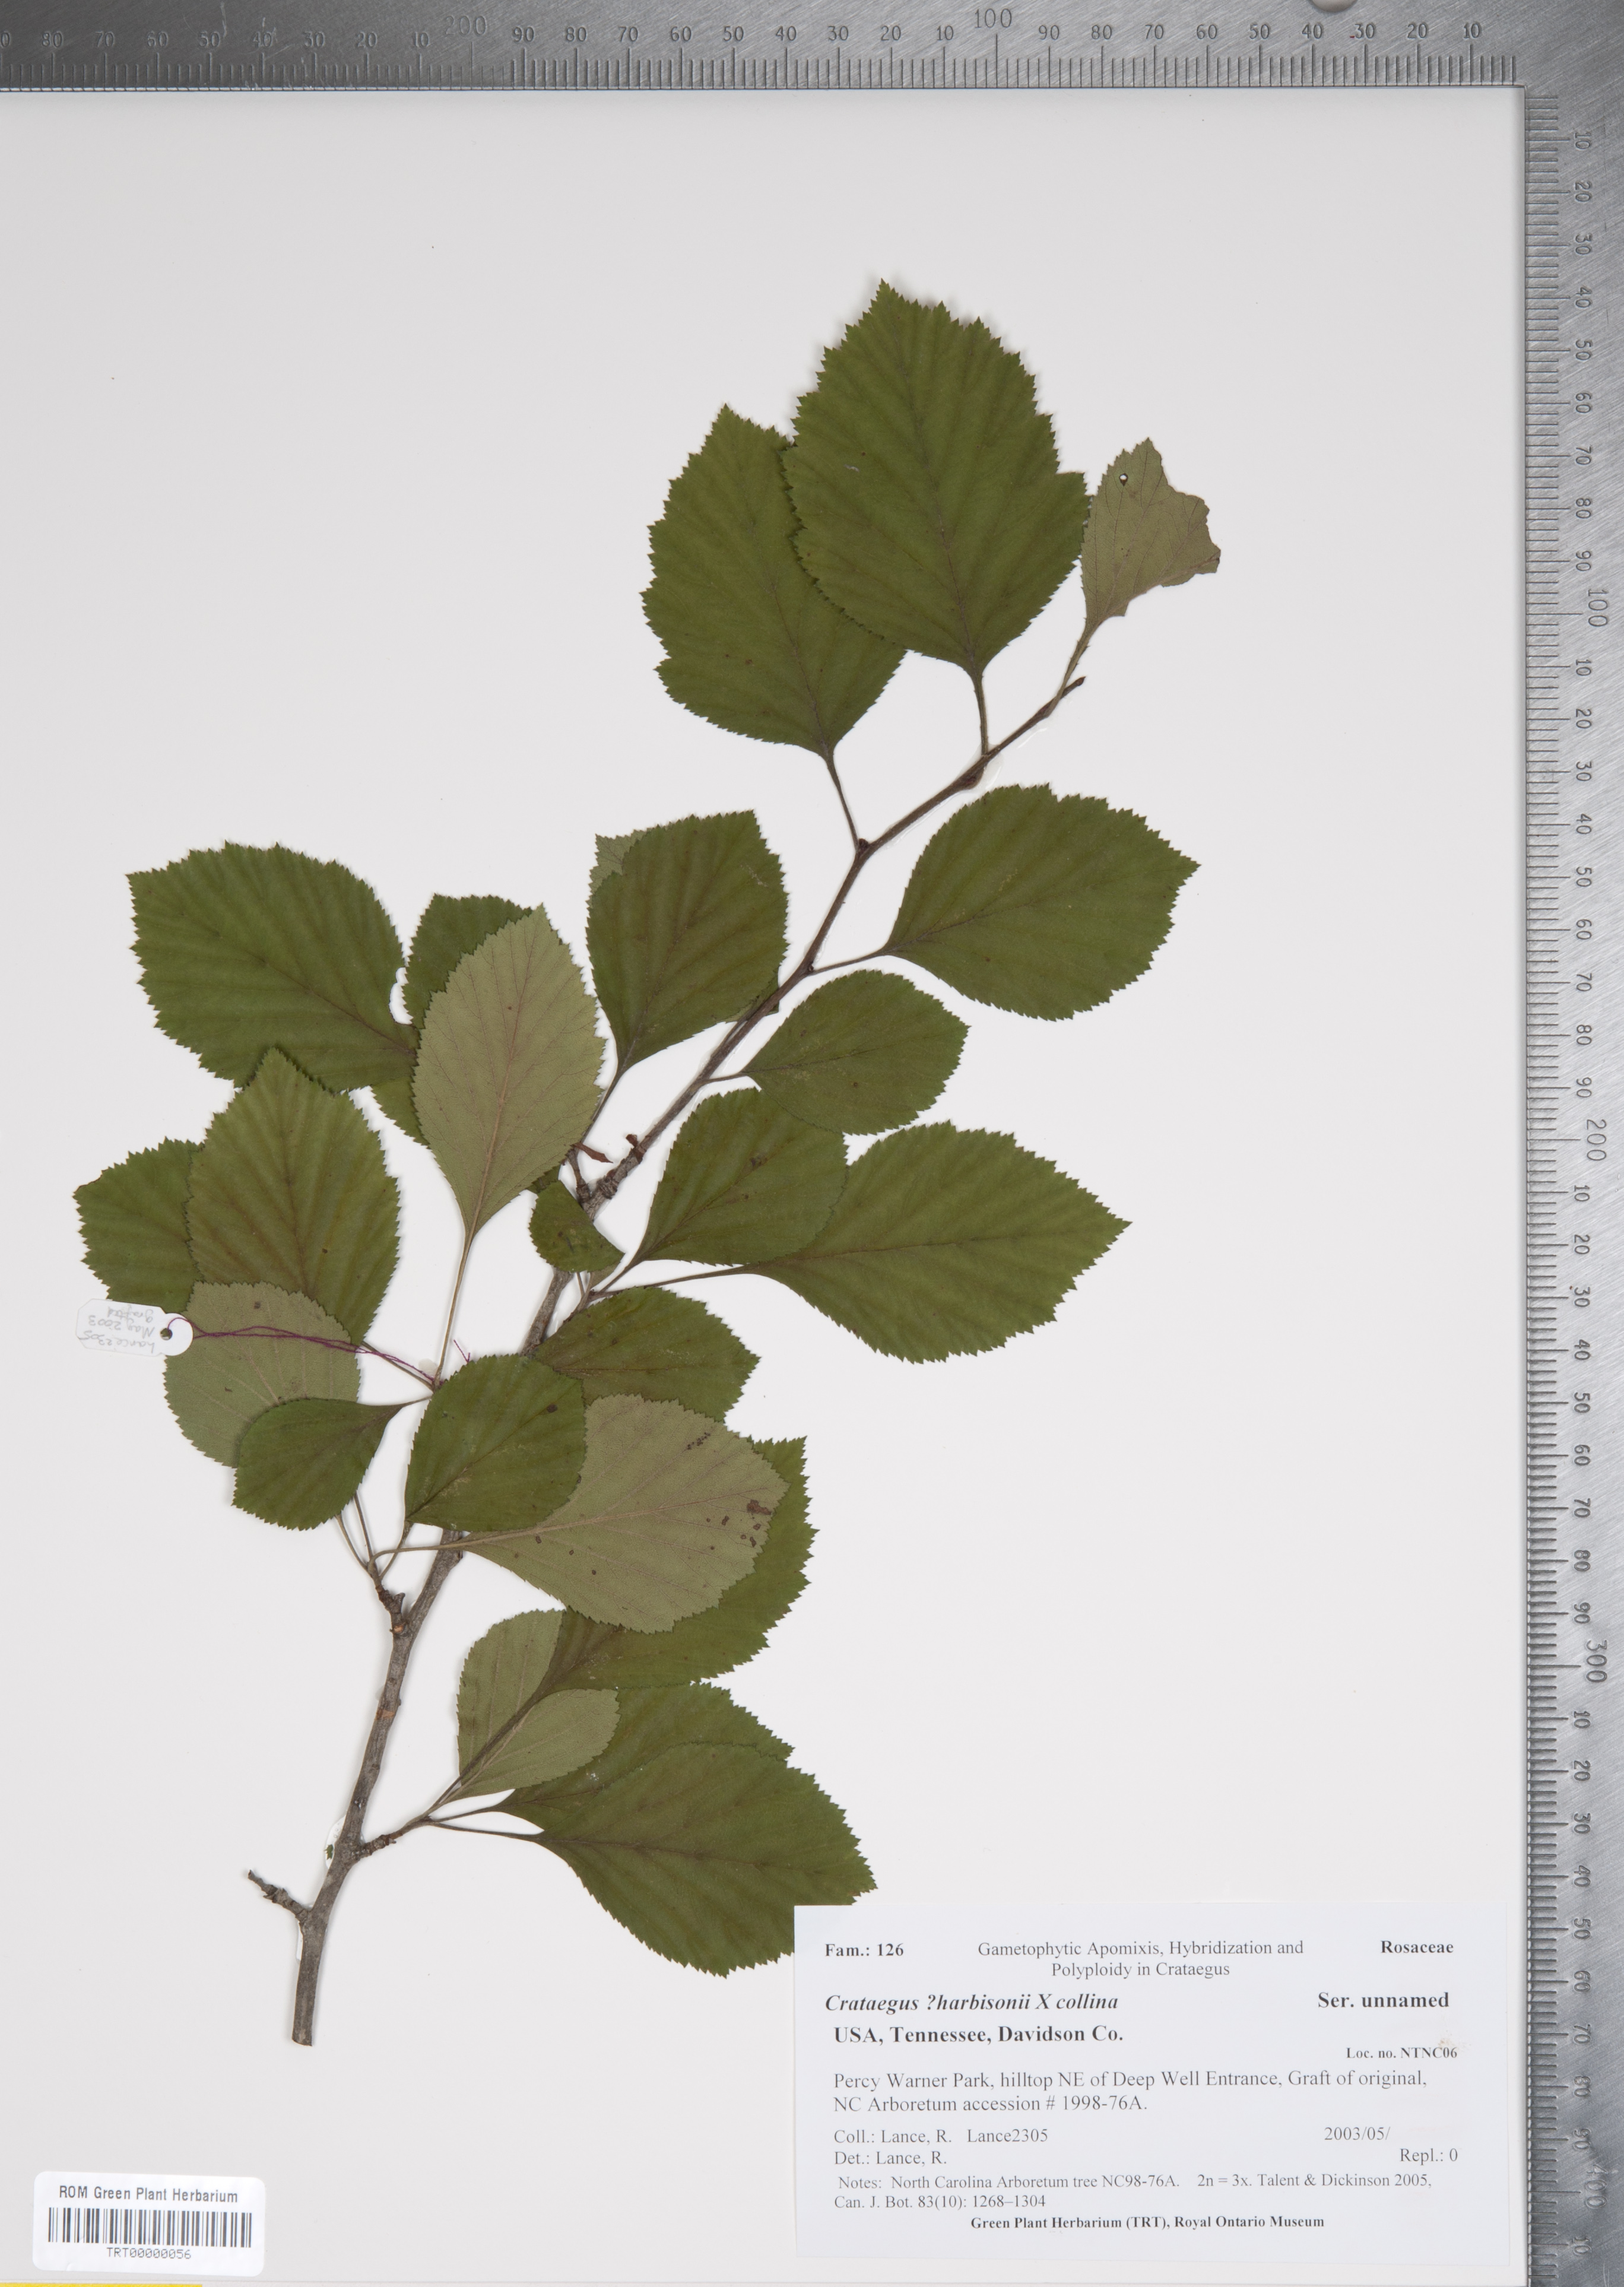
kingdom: Plantae
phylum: Tracheophyta
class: Magnoliopsida
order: Rosales
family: Rosaceae
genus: Crataegus
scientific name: Crataegus
